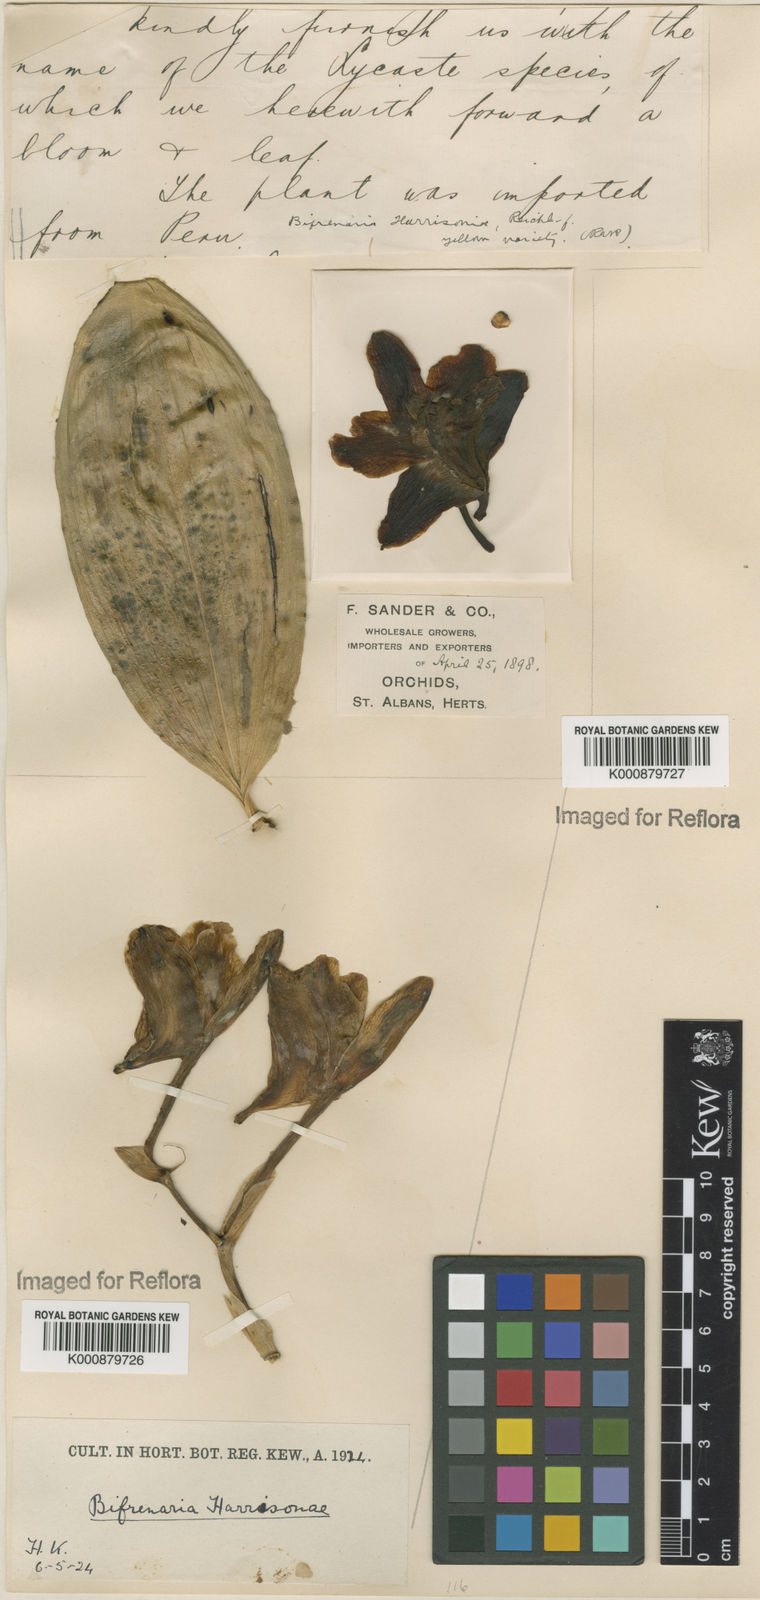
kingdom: Plantae
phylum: Tracheophyta
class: Liliopsida
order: Asparagales
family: Orchidaceae
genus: Bifrenaria
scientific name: Bifrenaria harrisoniae
